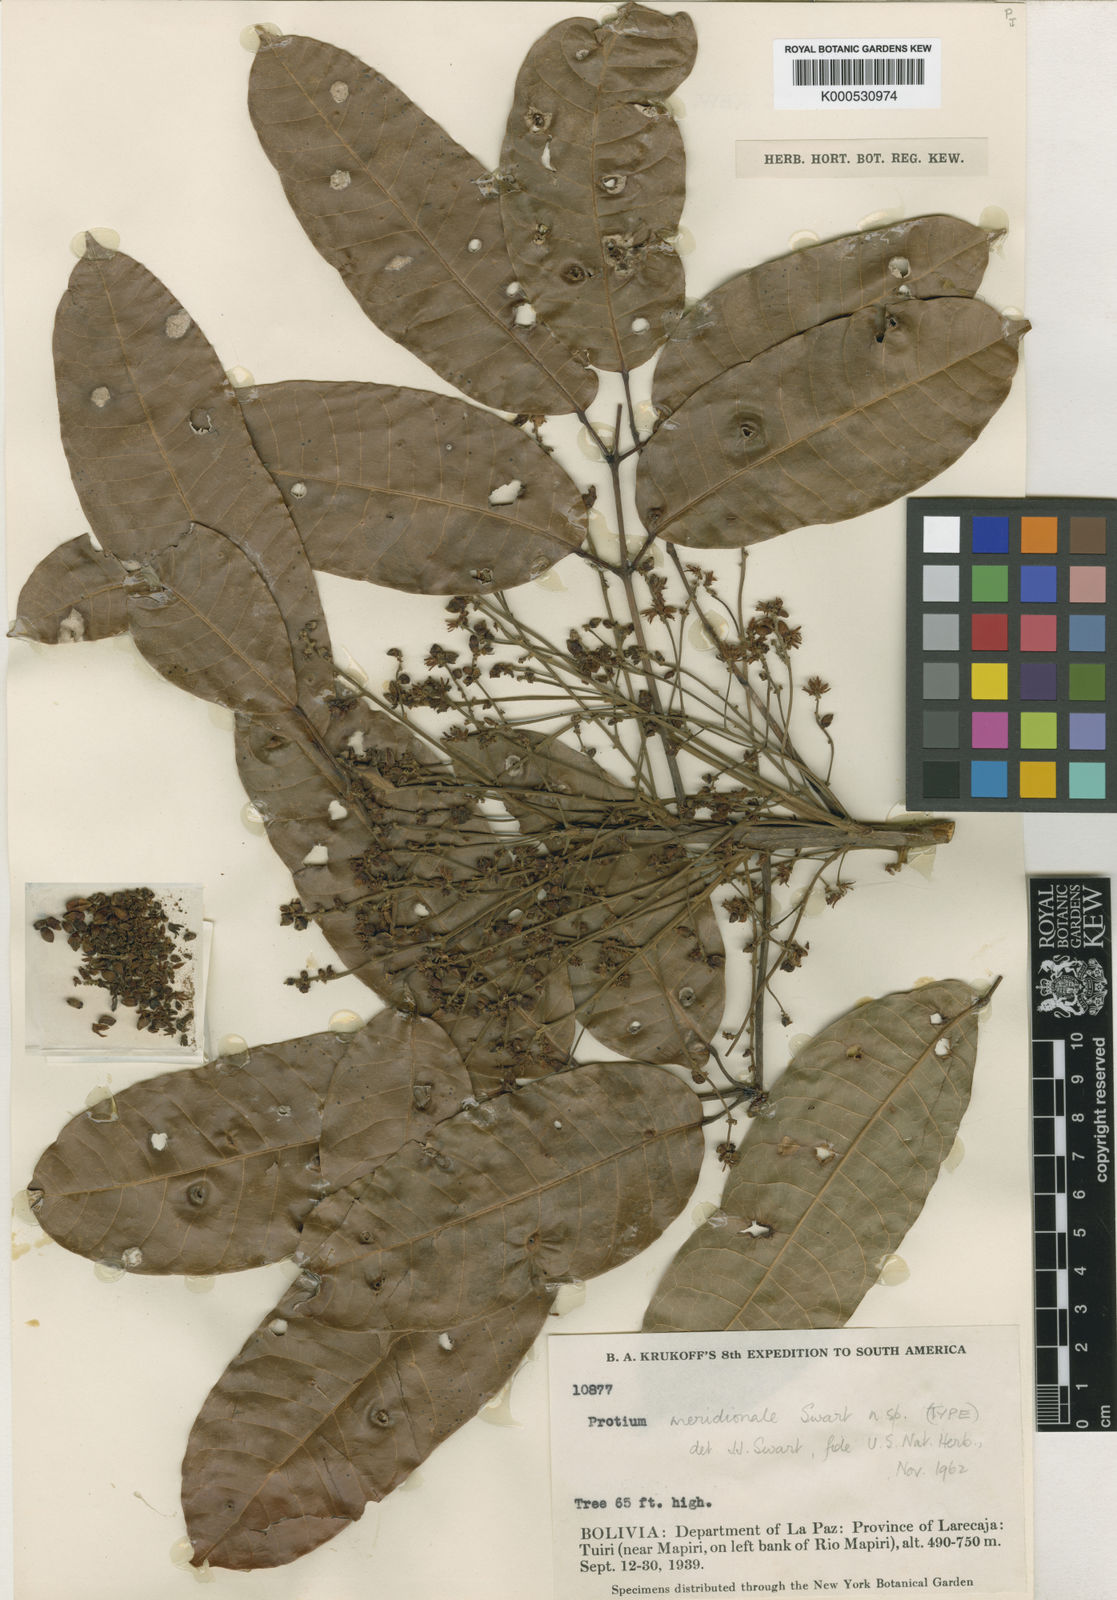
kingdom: Plantae
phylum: Tracheophyta
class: Magnoliopsida
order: Sapindales
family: Burseraceae
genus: Protium
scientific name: Protium meridionale
